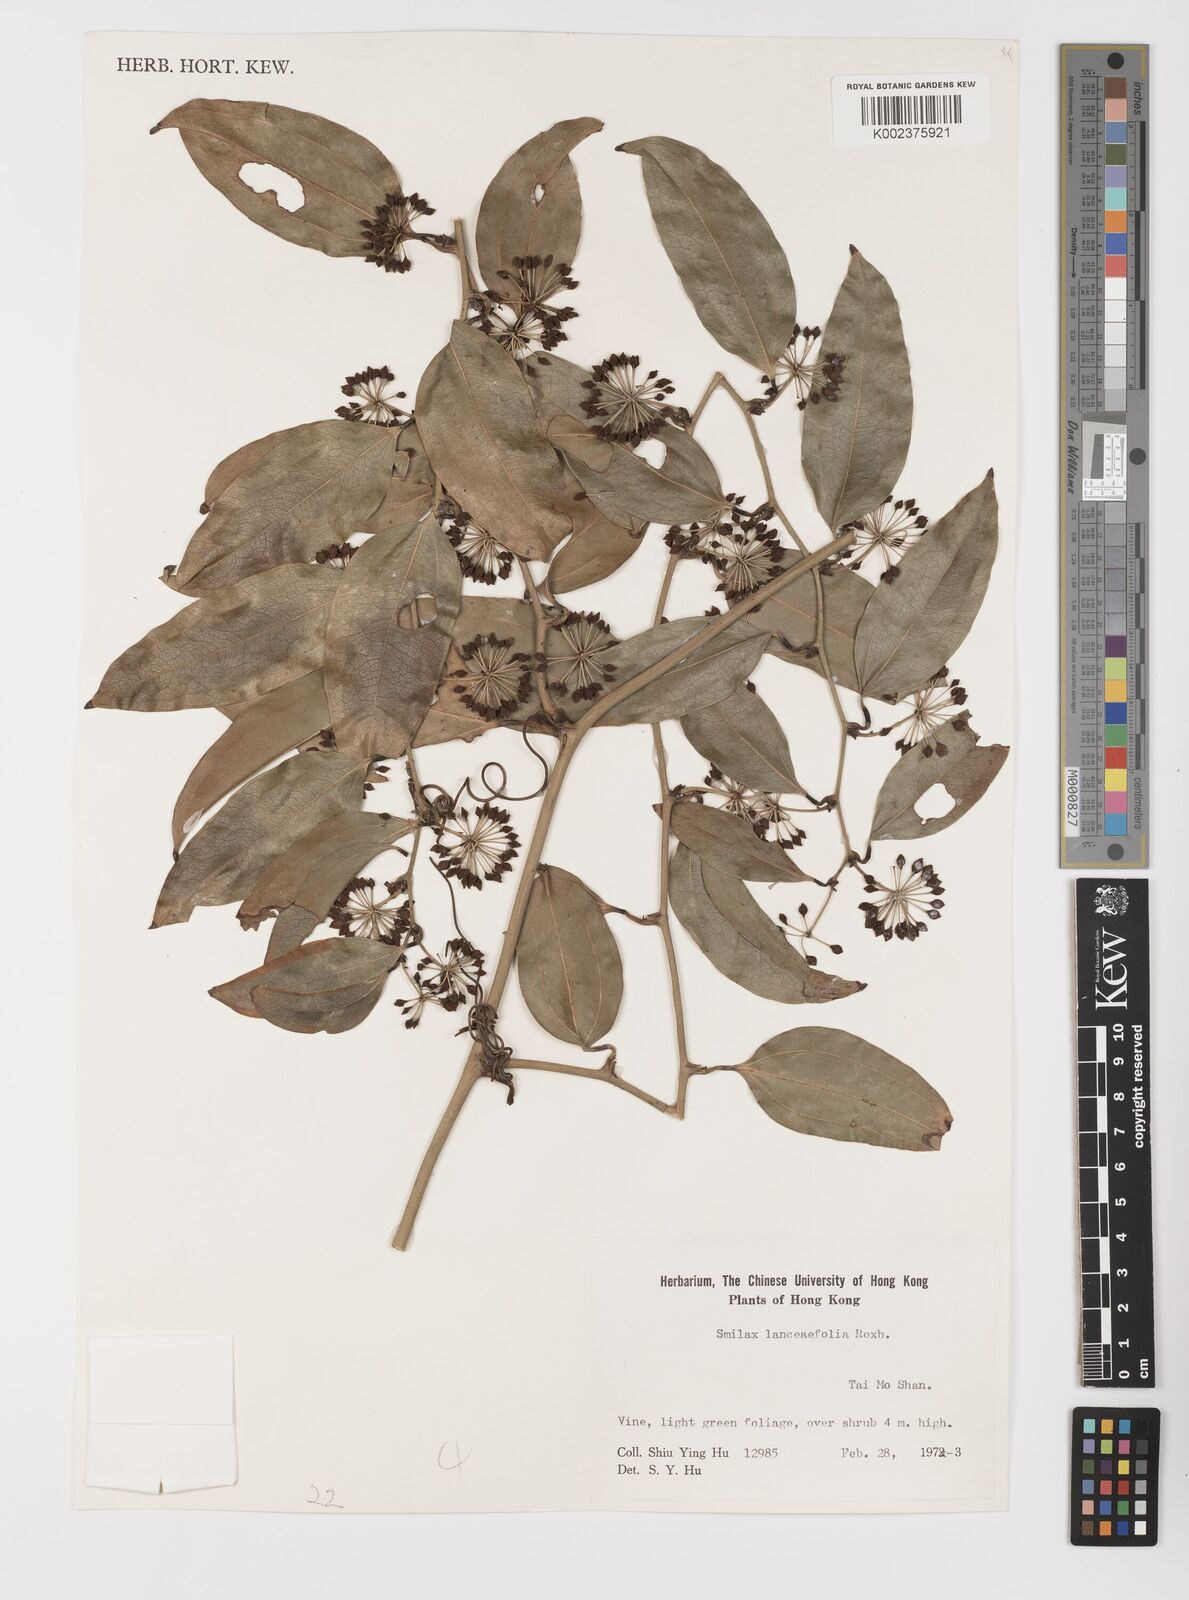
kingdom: Plantae
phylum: Tracheophyta
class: Liliopsida
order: Liliales
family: Smilacaceae
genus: Smilax
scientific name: Smilax lanceifolia
